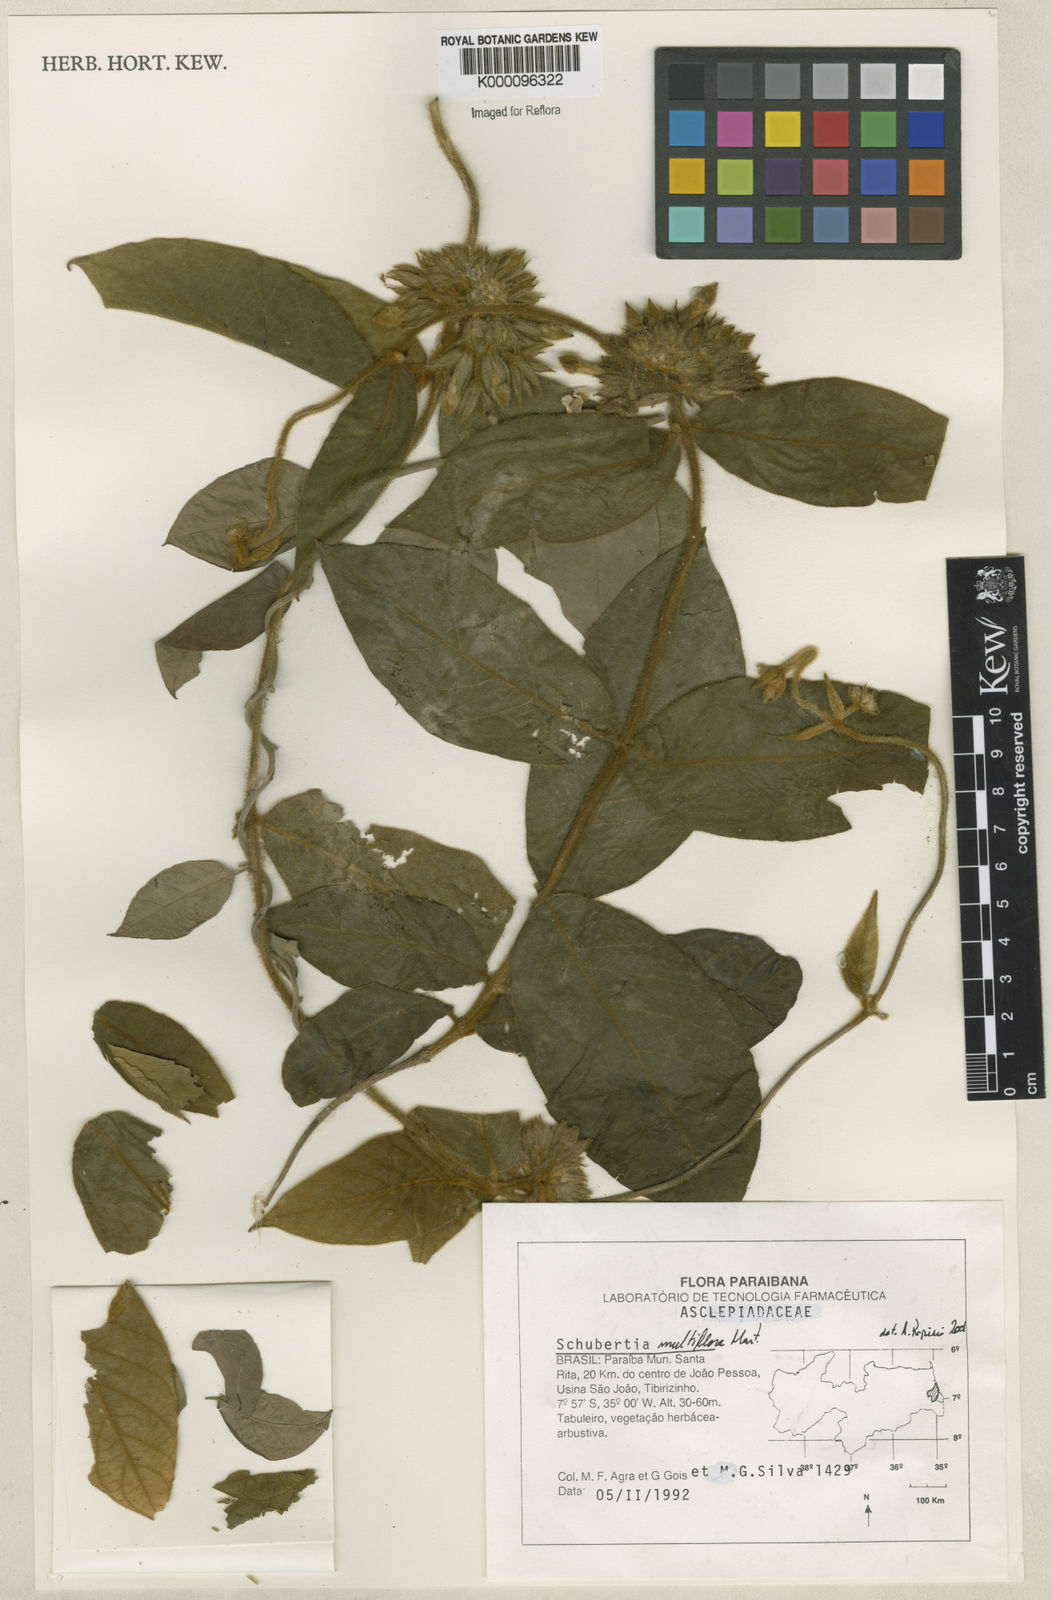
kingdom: Plantae
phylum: Tracheophyta
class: Magnoliopsida
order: Gentianales
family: Apocynaceae
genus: Schubertia
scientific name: Schubertia multiflora
